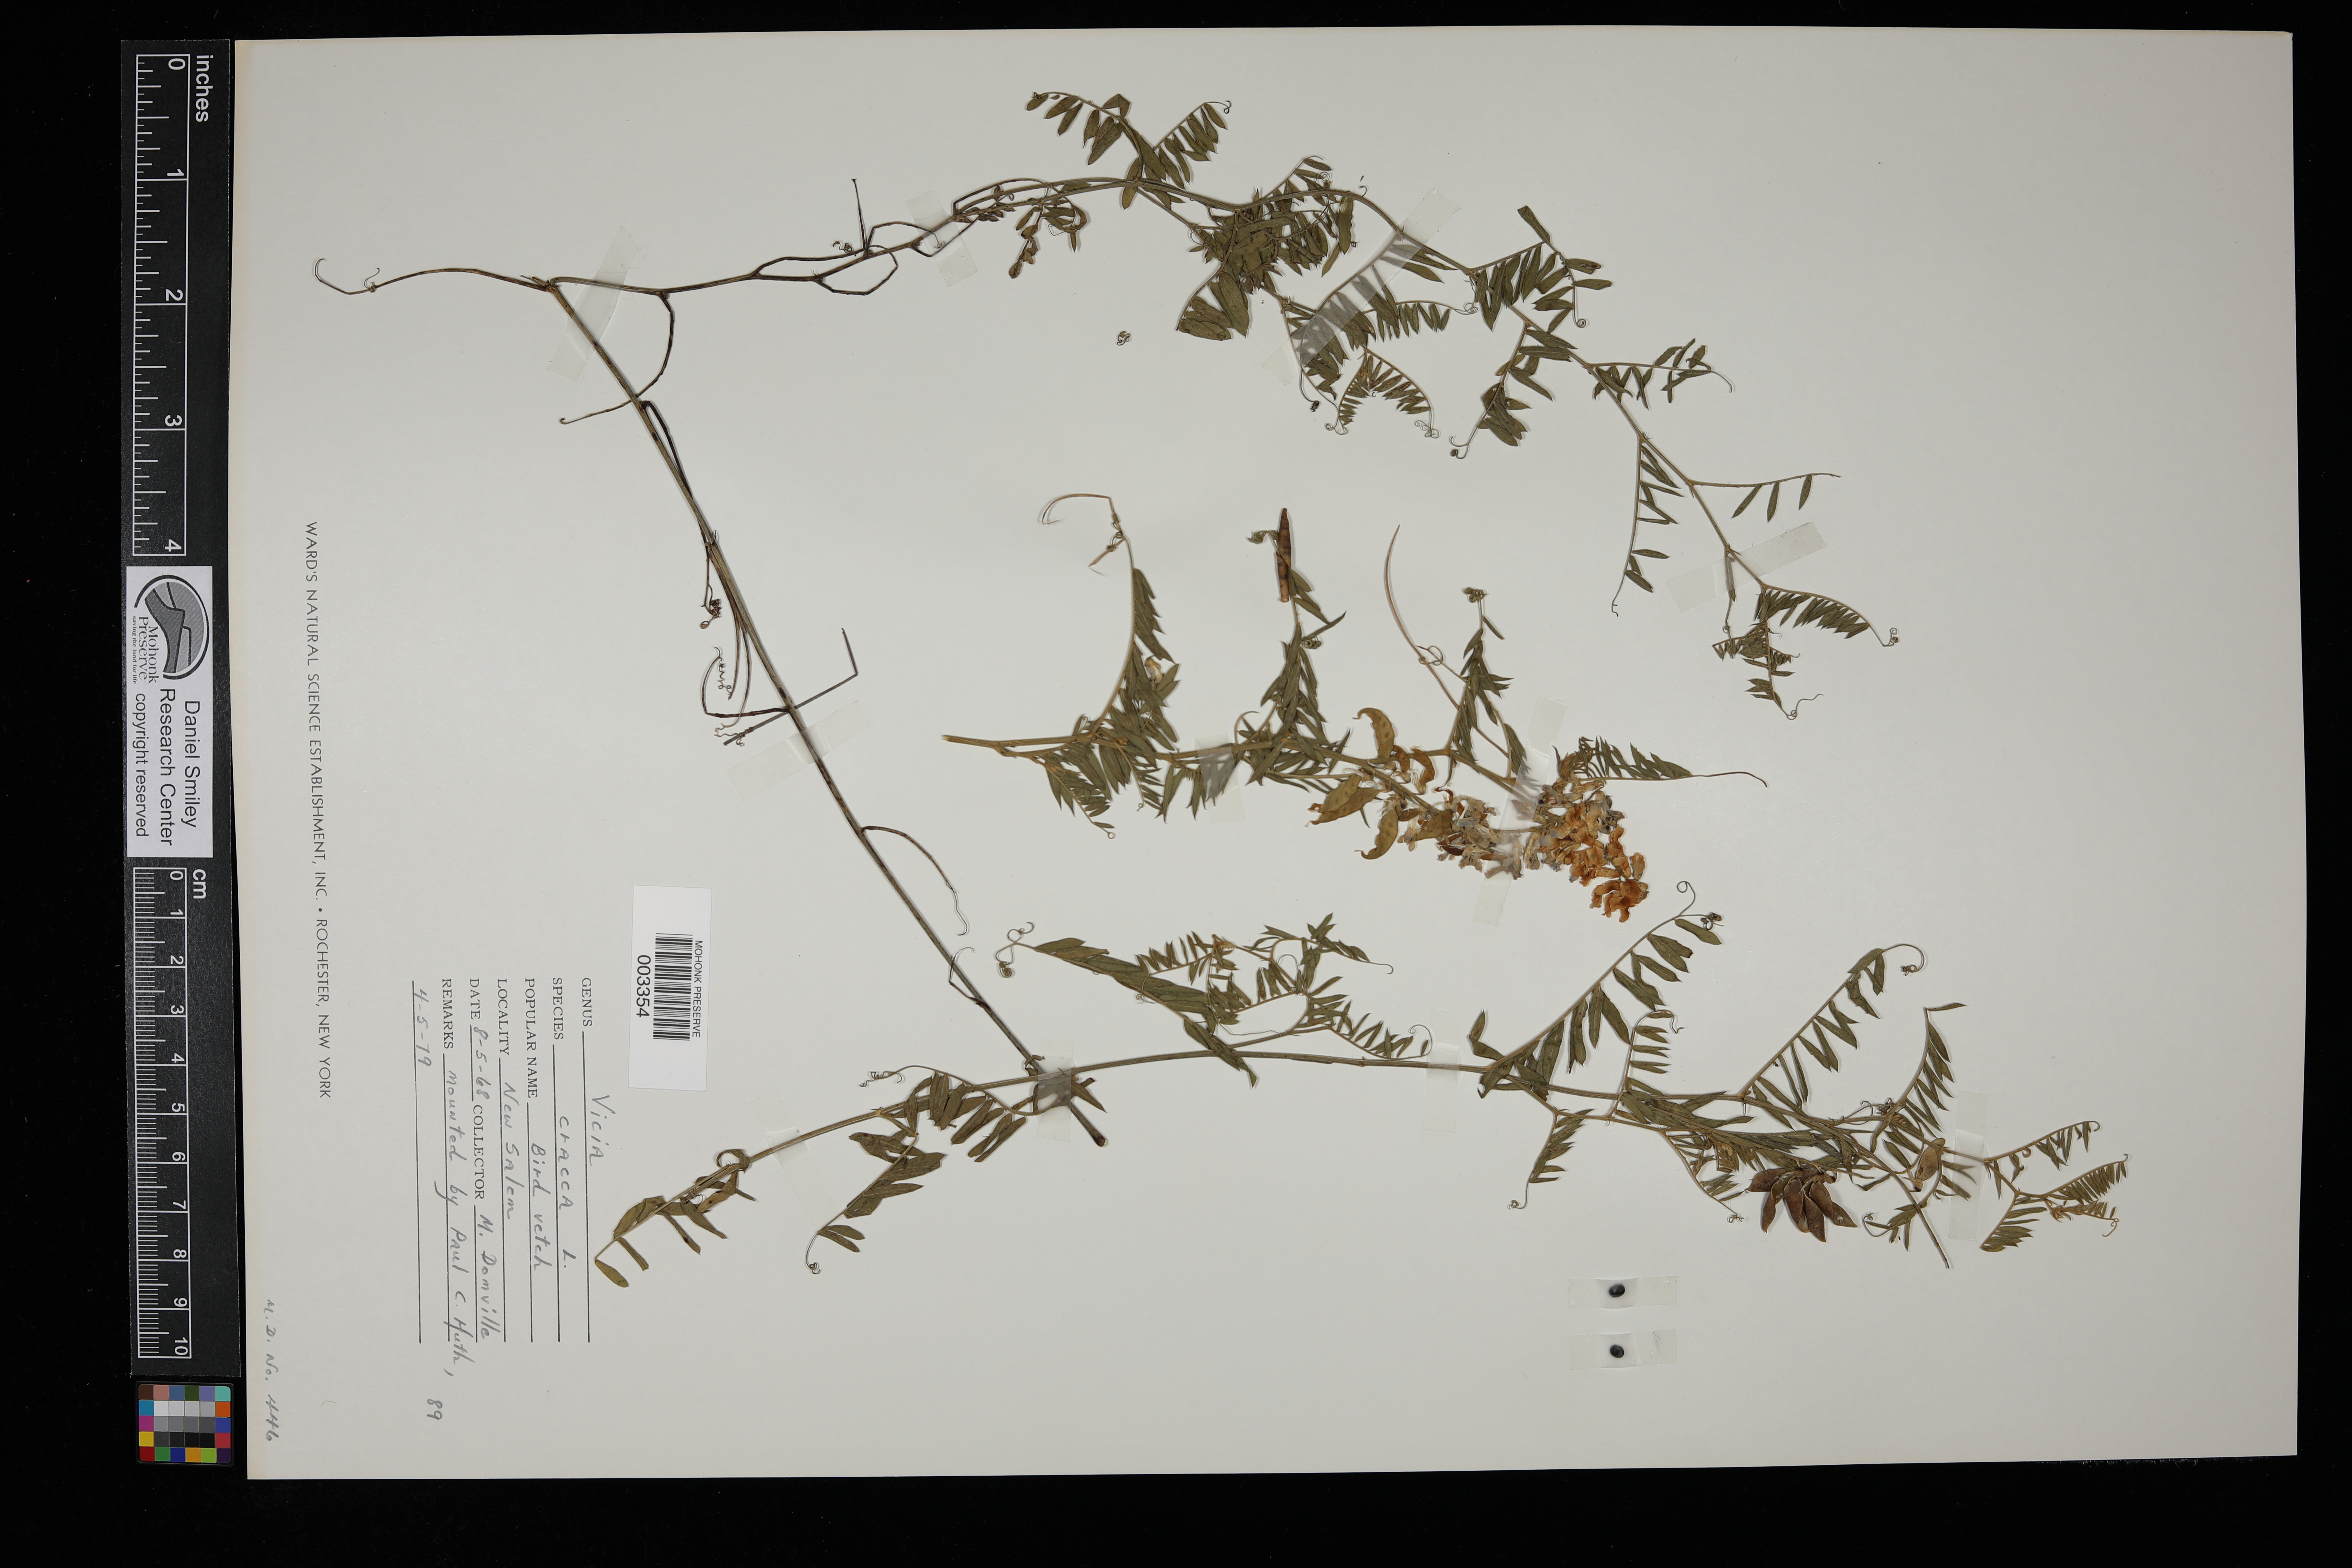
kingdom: Plantae
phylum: Tracheophyta
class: Magnoliopsida
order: Fabales
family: Fabaceae
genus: Vicia
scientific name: Vicia cracca
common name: Bird vetch
